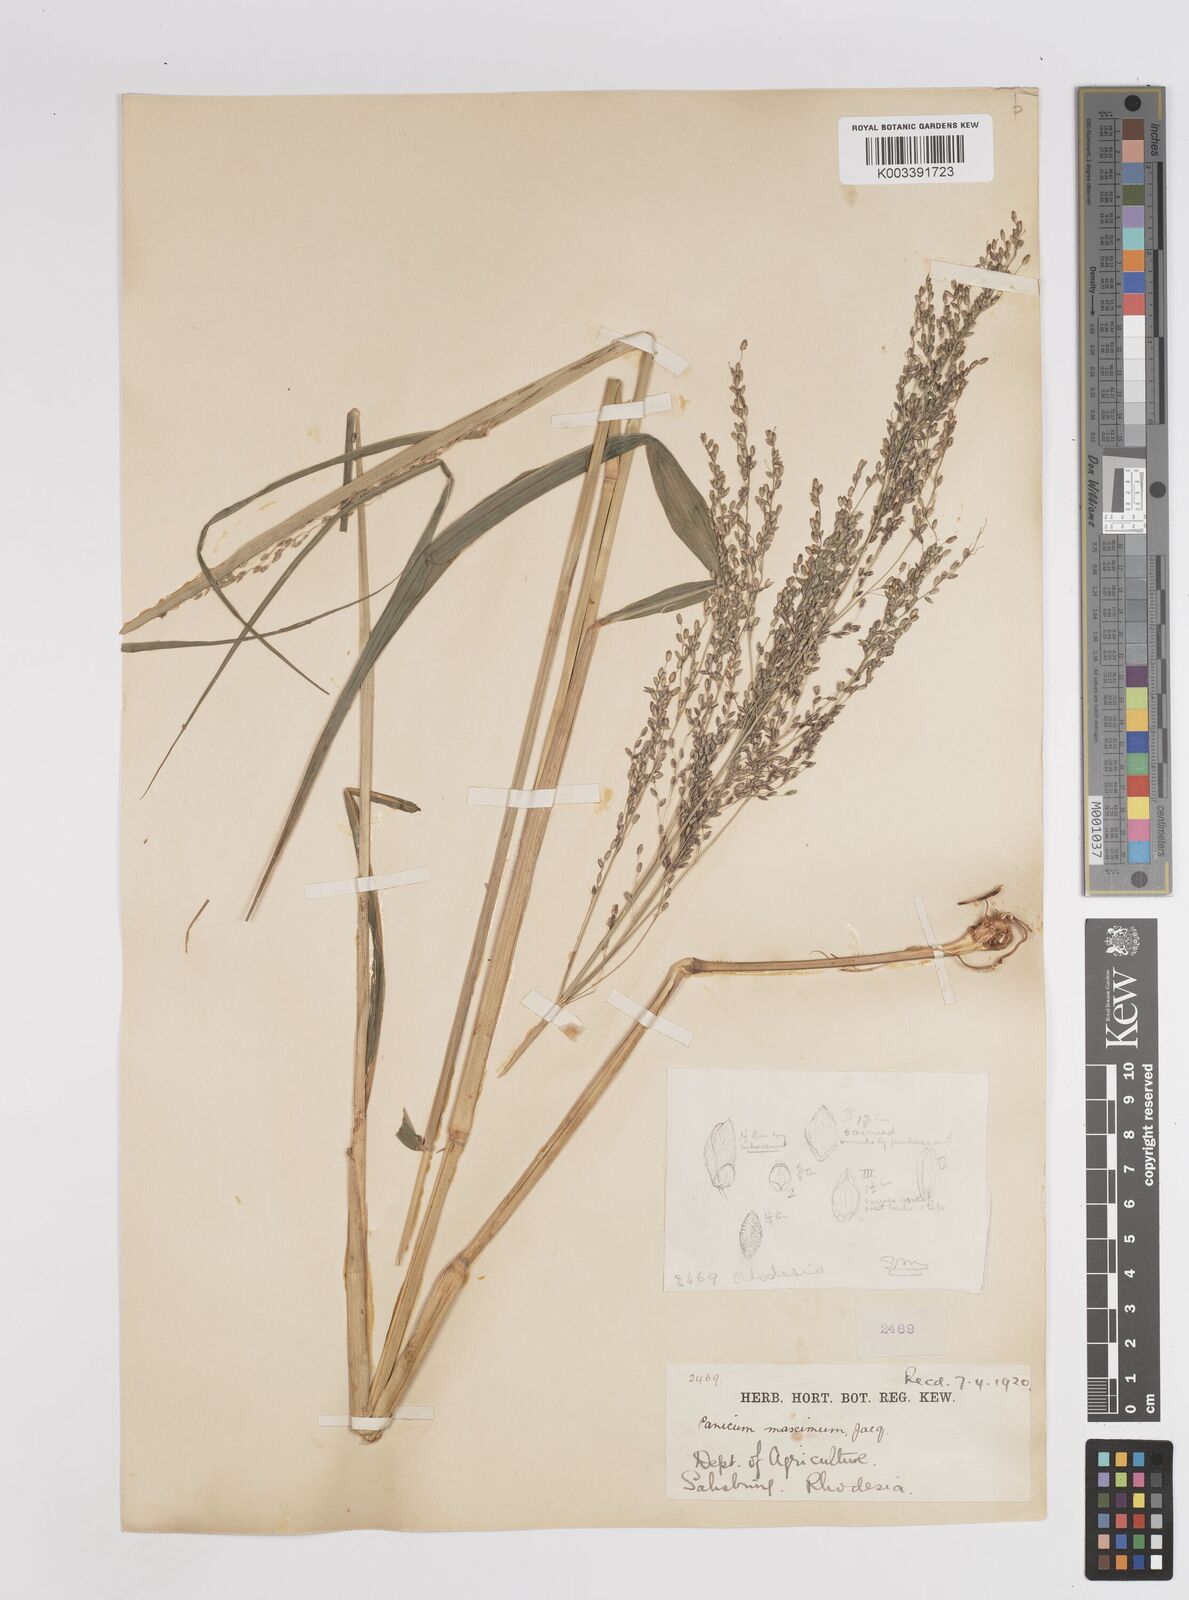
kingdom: Plantae
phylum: Tracheophyta
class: Liliopsida
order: Poales
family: Poaceae
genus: Megathyrsus
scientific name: Megathyrsus maximus
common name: Guineagrass
